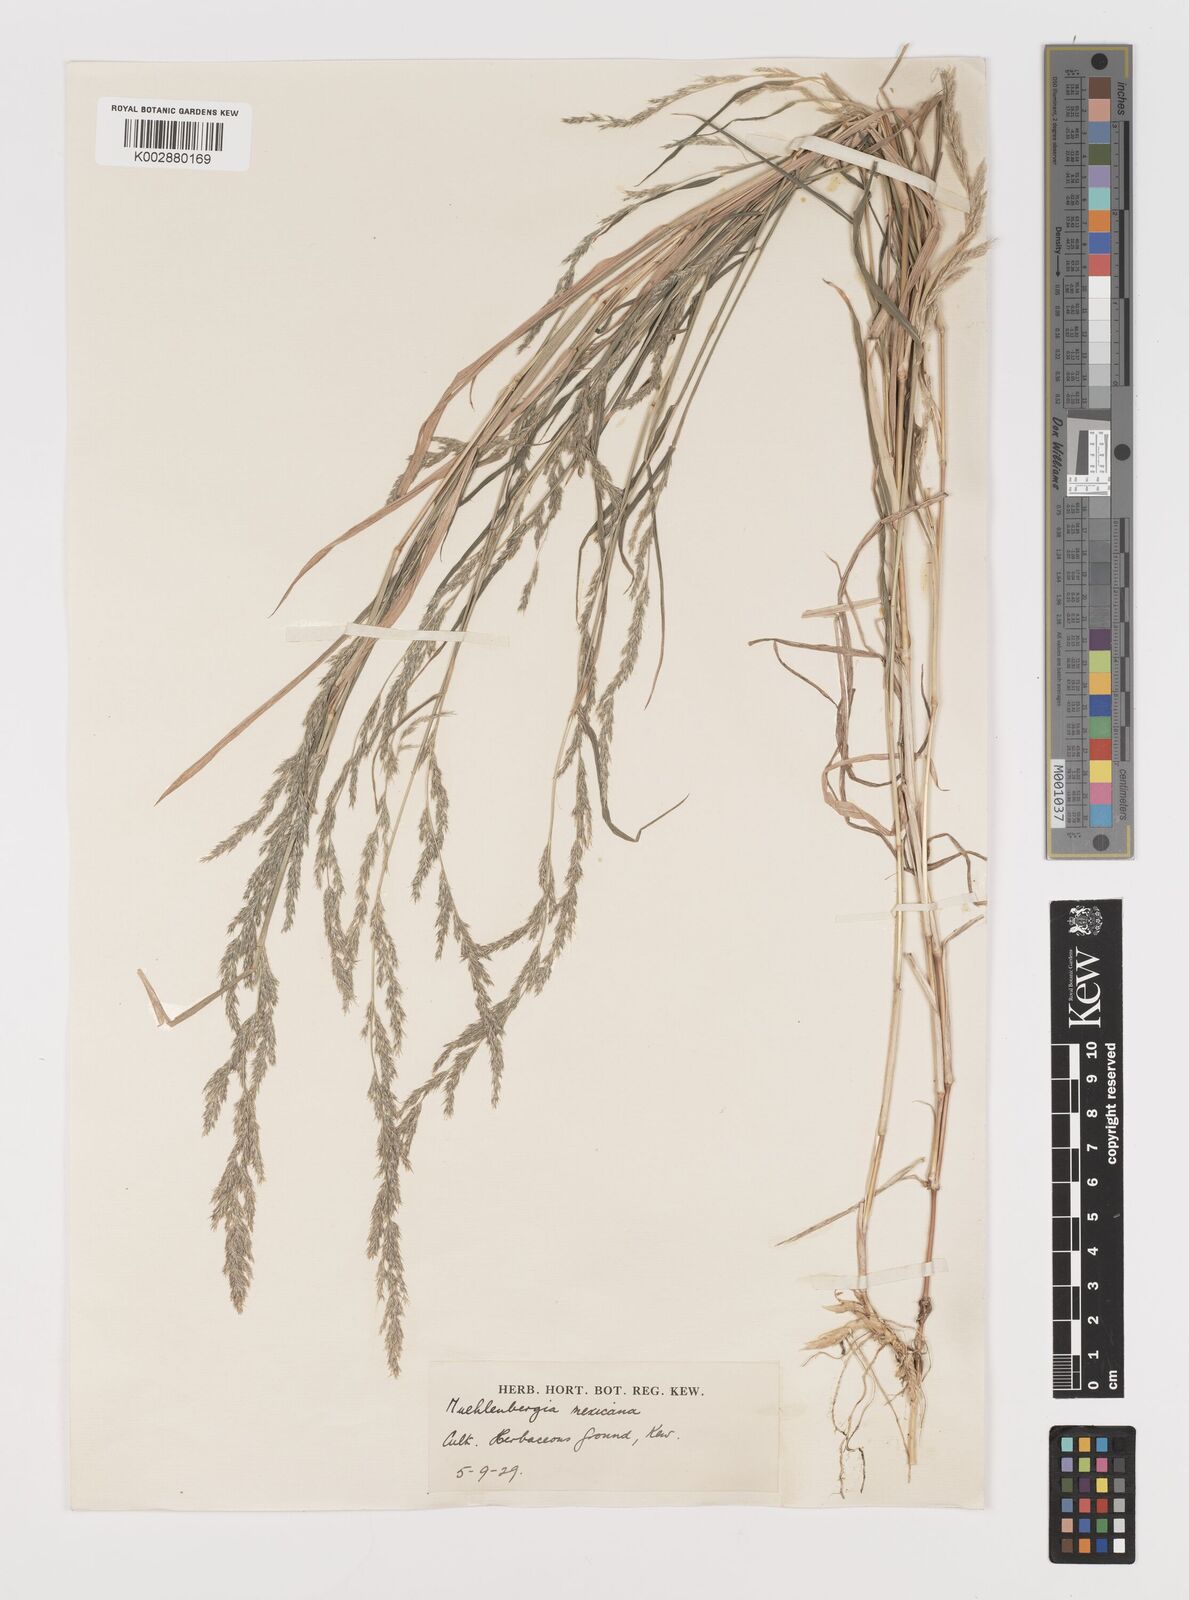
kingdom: Plantae
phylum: Tracheophyta
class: Liliopsida
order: Poales
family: Poaceae
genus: Muhlenbergia
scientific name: Muhlenbergia mexicana
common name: Mexican muhly
